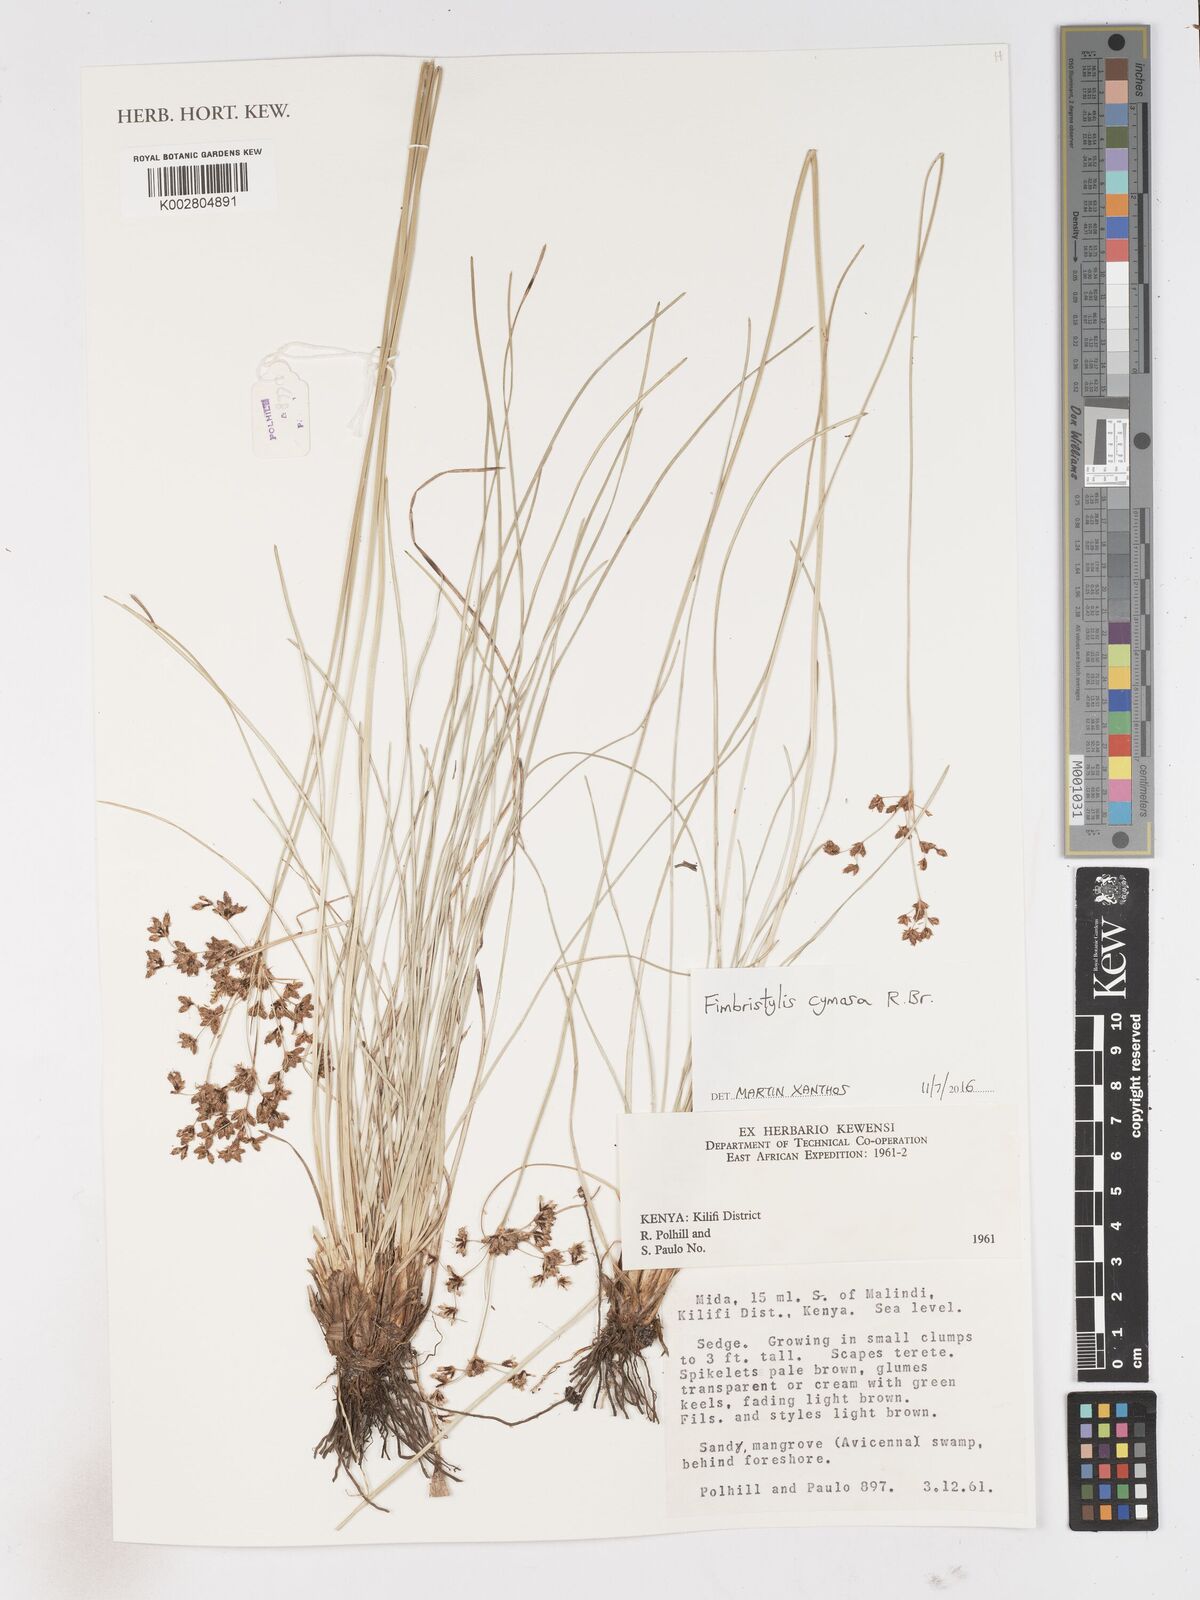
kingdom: Plantae
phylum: Tracheophyta
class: Liliopsida
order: Poales
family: Cyperaceae
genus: Fimbristylis
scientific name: Fimbristylis cymosa
